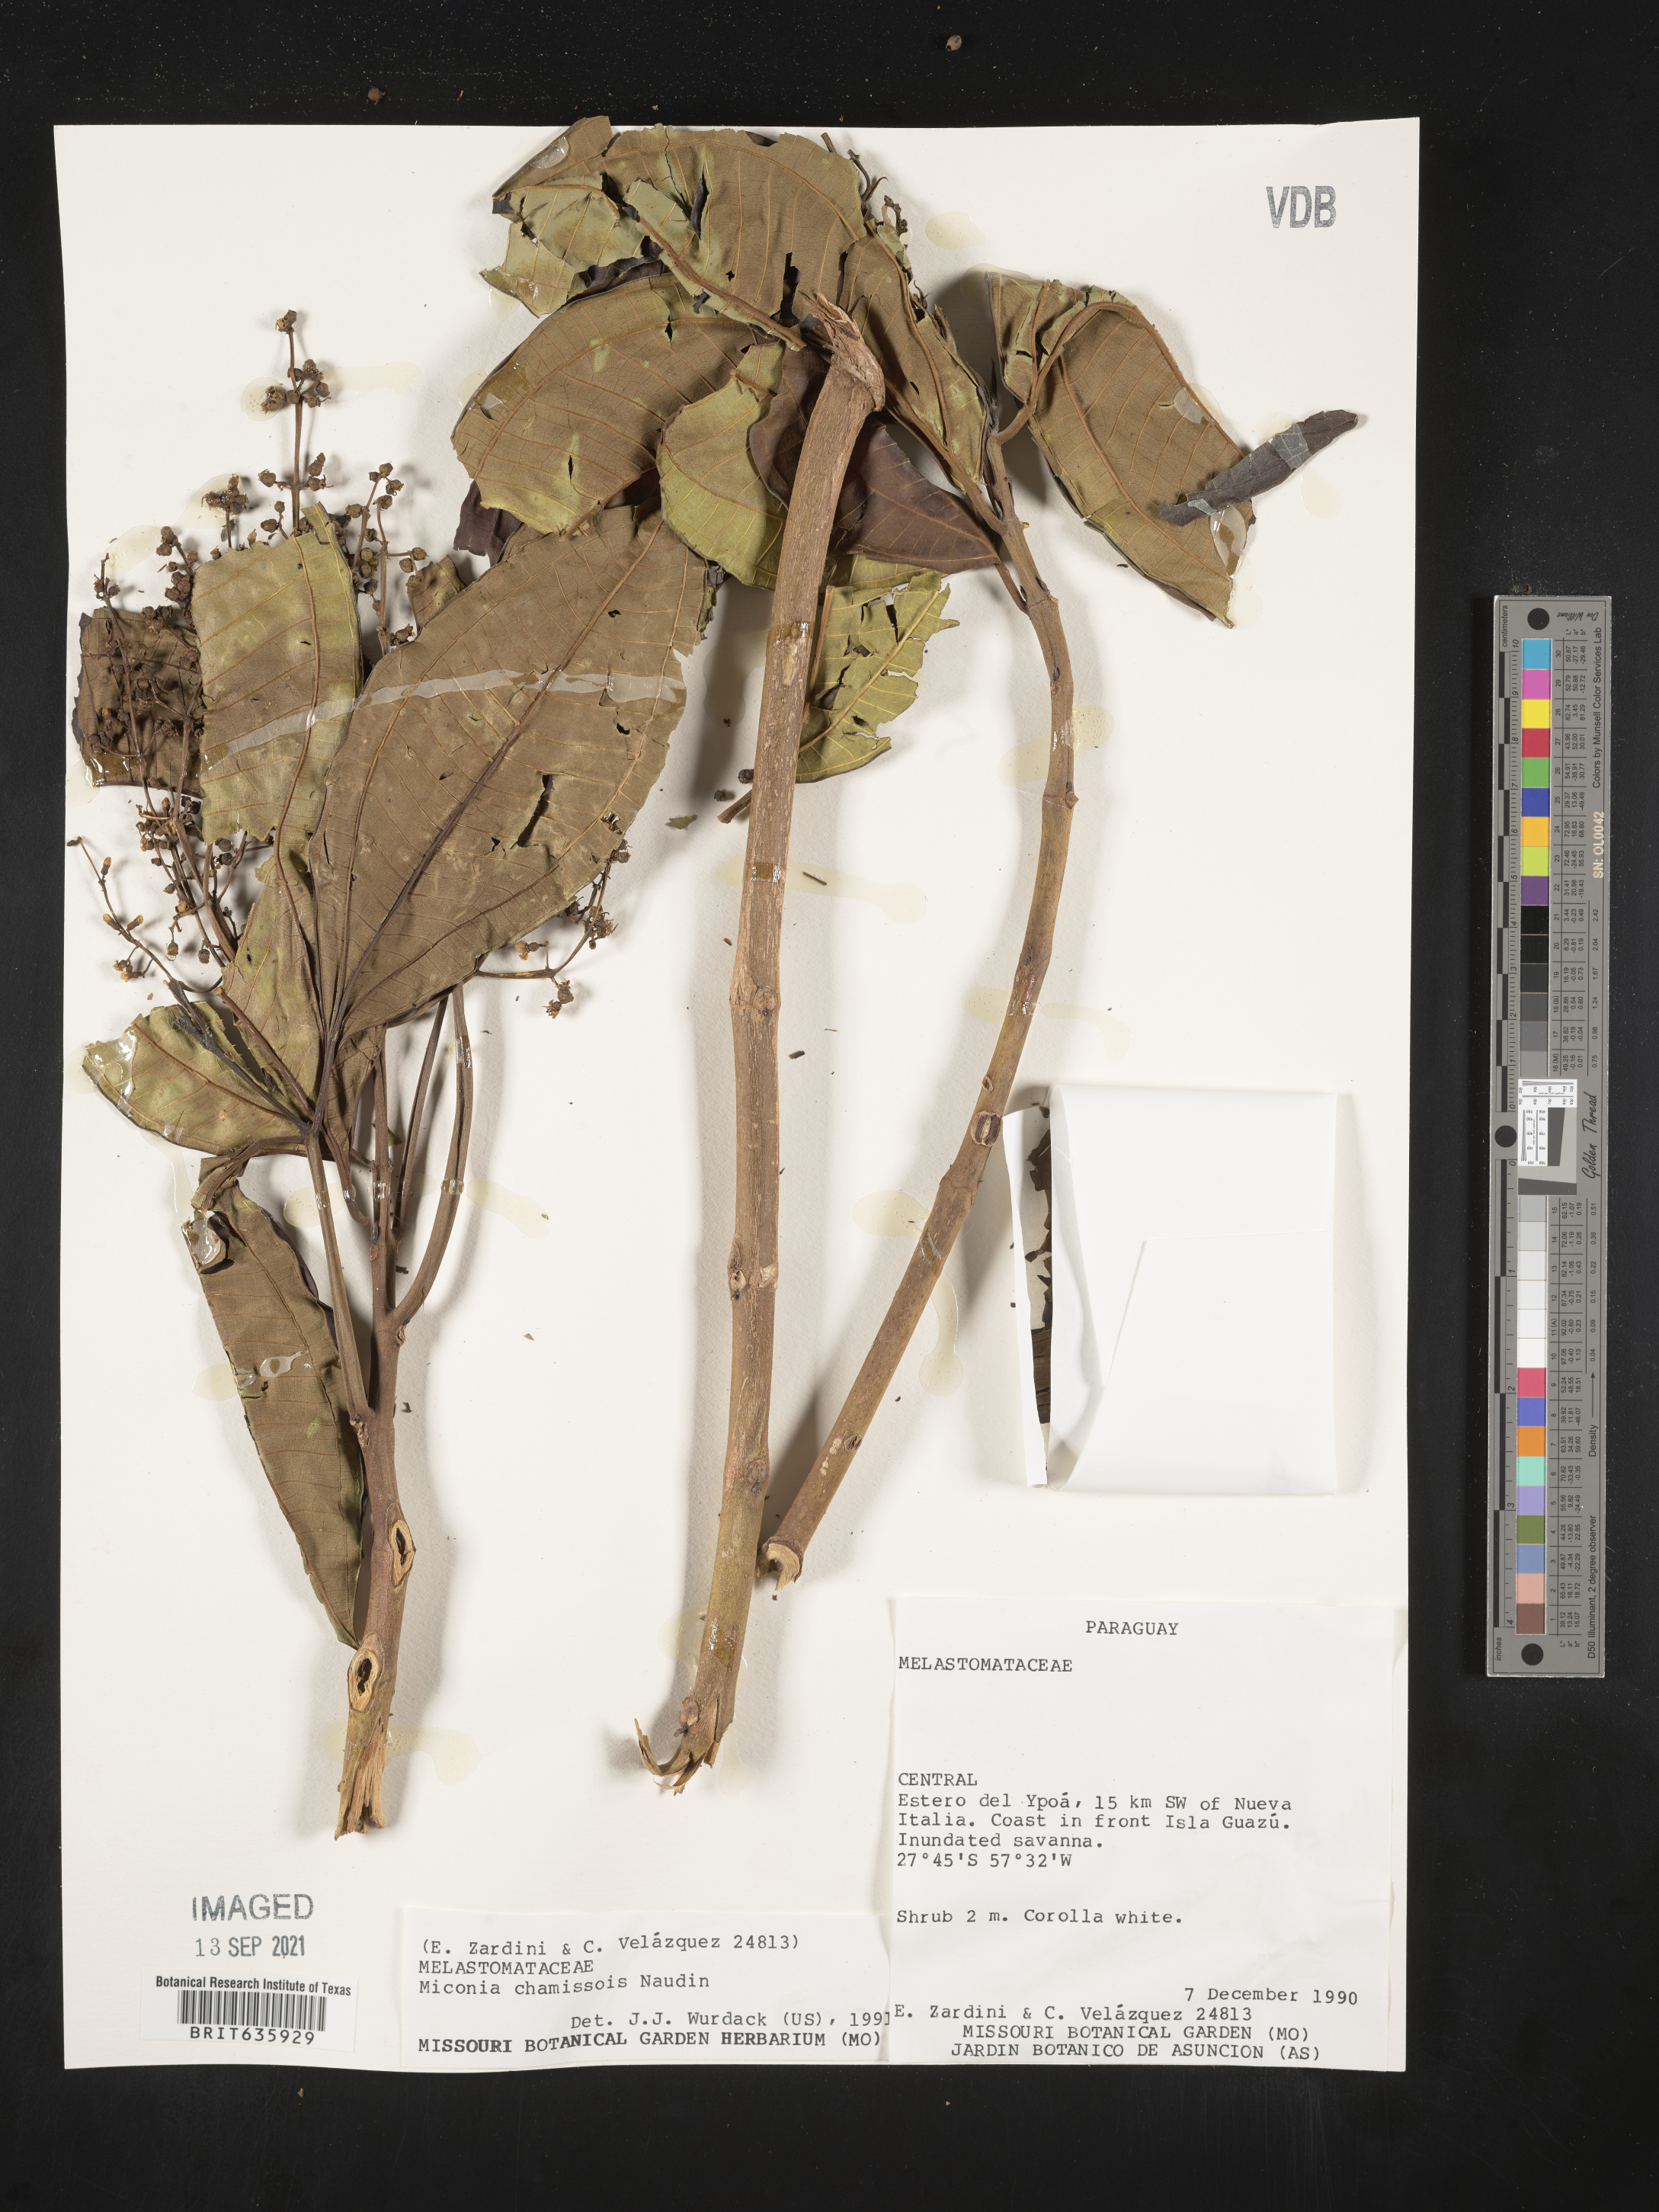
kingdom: Plantae
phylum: Tracheophyta
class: Magnoliopsida
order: Myrtales
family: Melastomataceae
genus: Miconia
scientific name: Miconia
